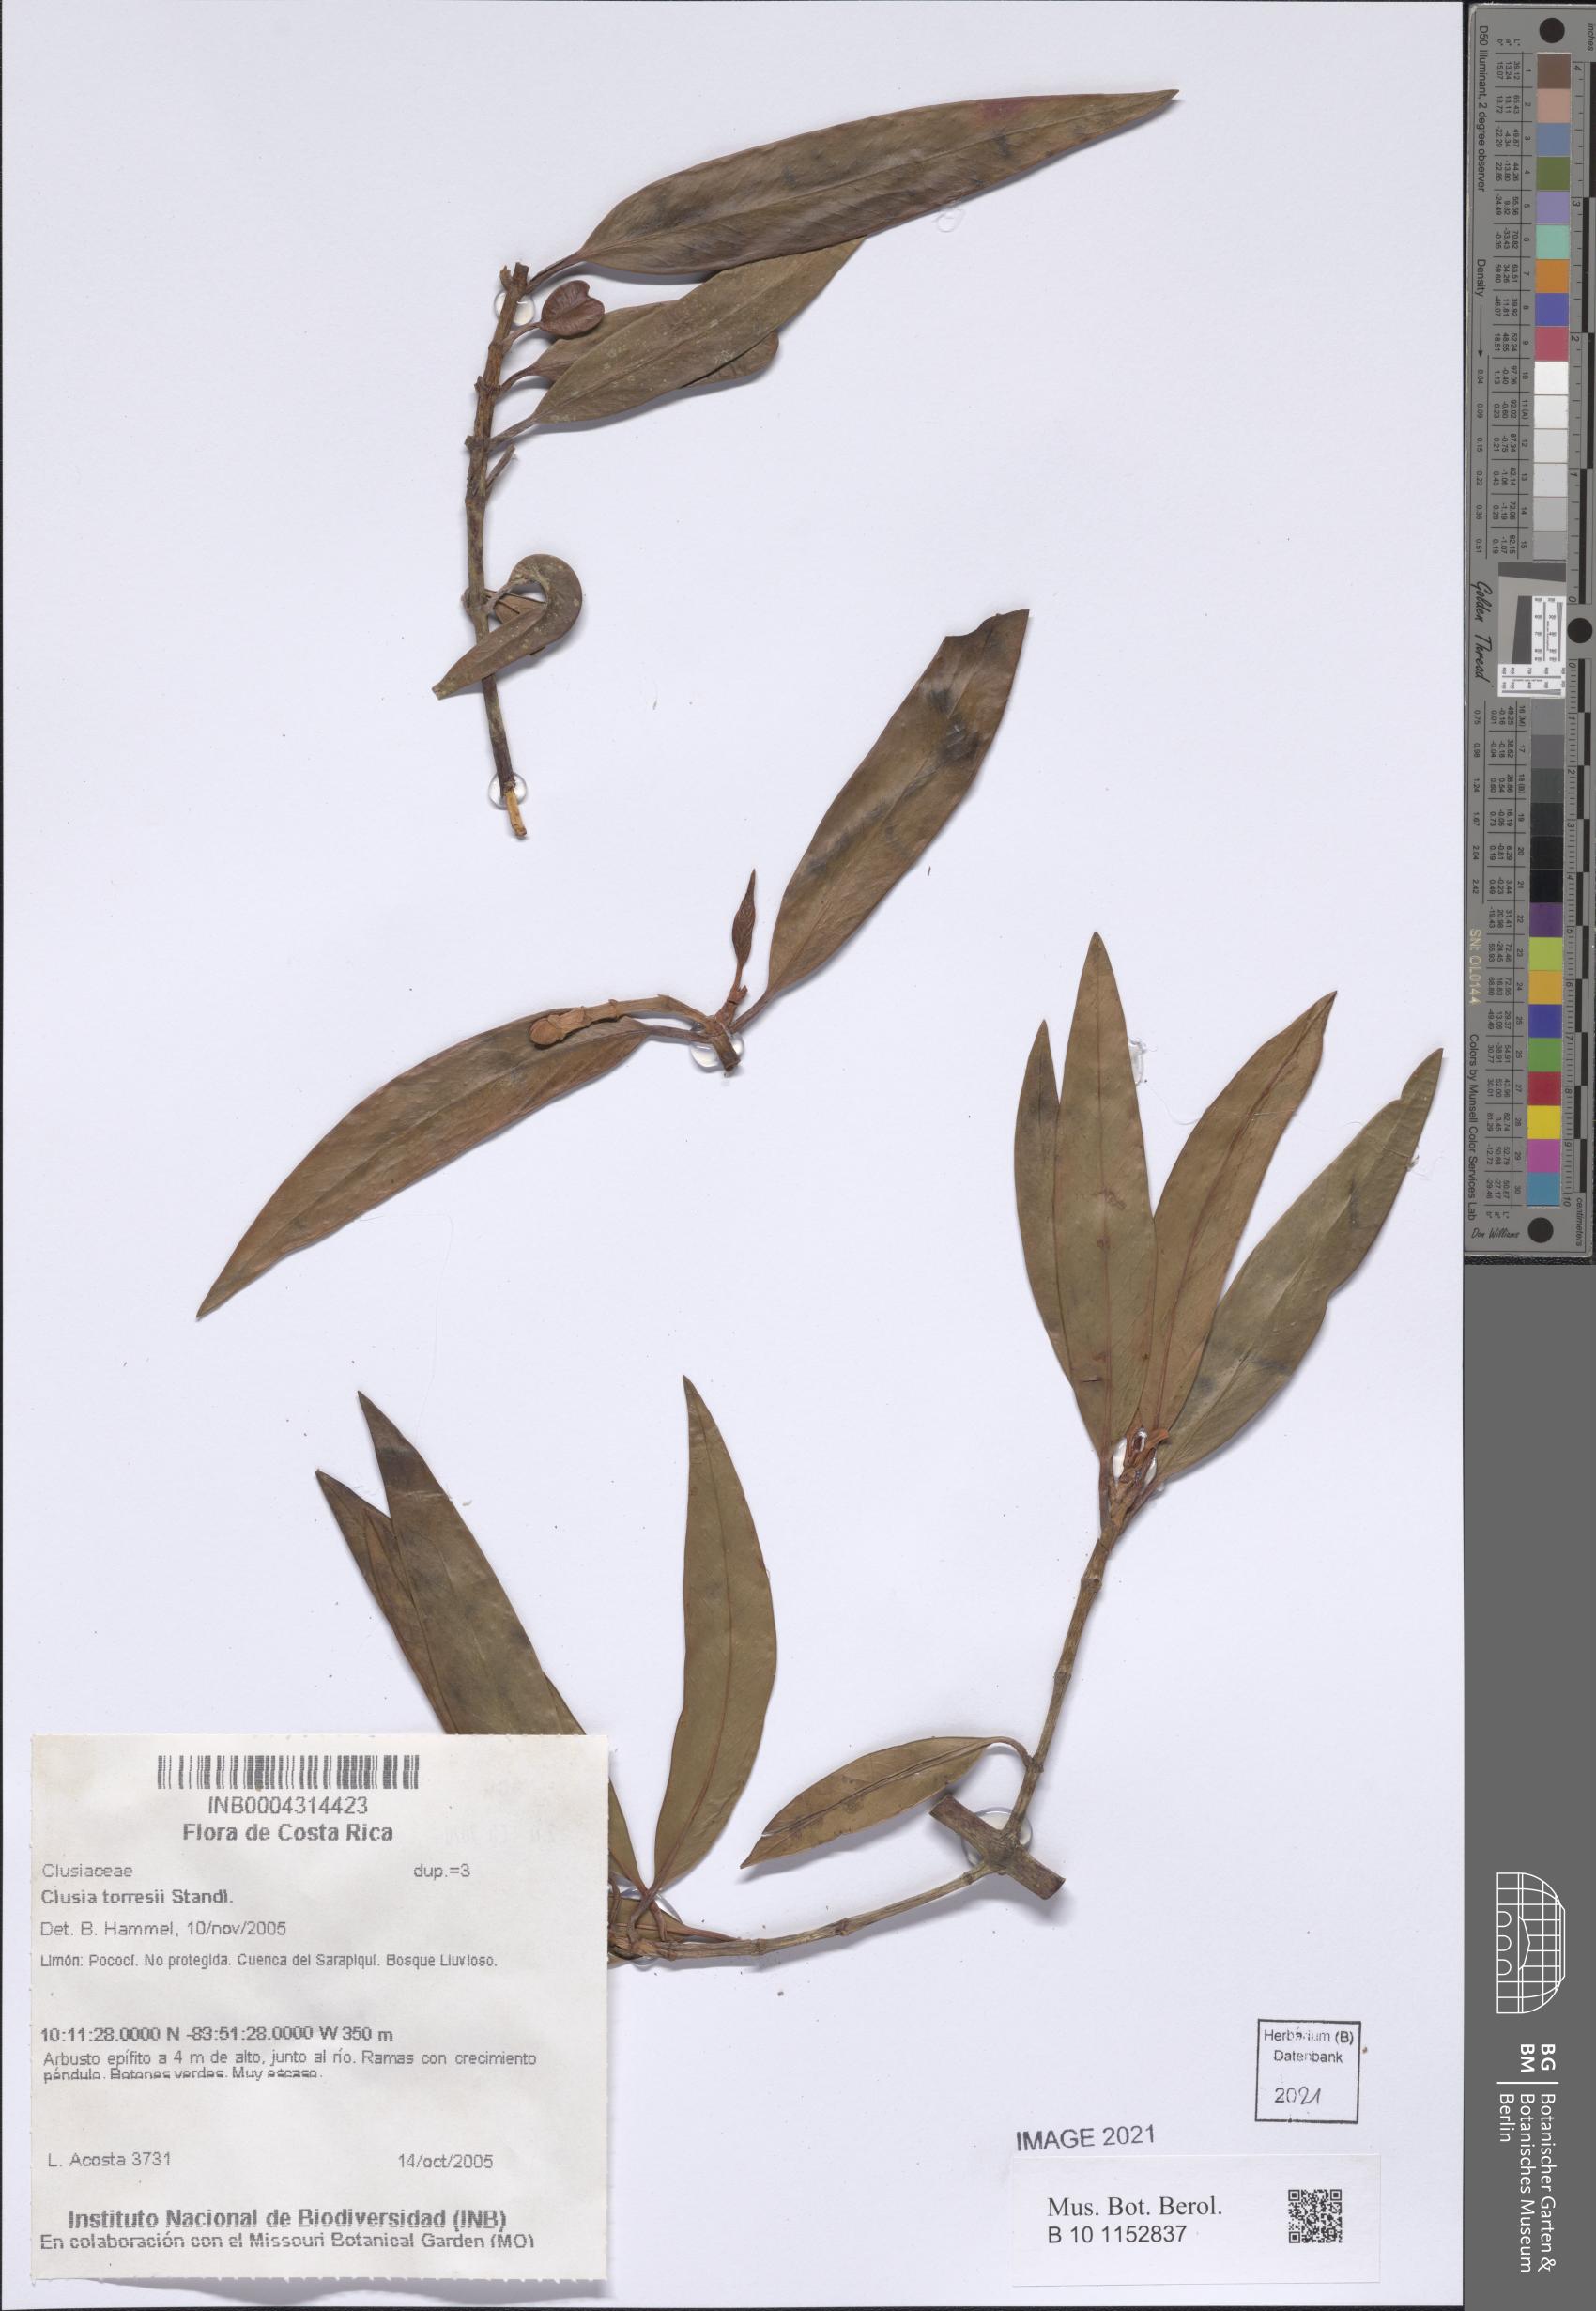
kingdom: Plantae
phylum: Tracheophyta
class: Magnoliopsida
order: Malpighiales
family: Clusiaceae
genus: Clusia
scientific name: Clusia torresii
